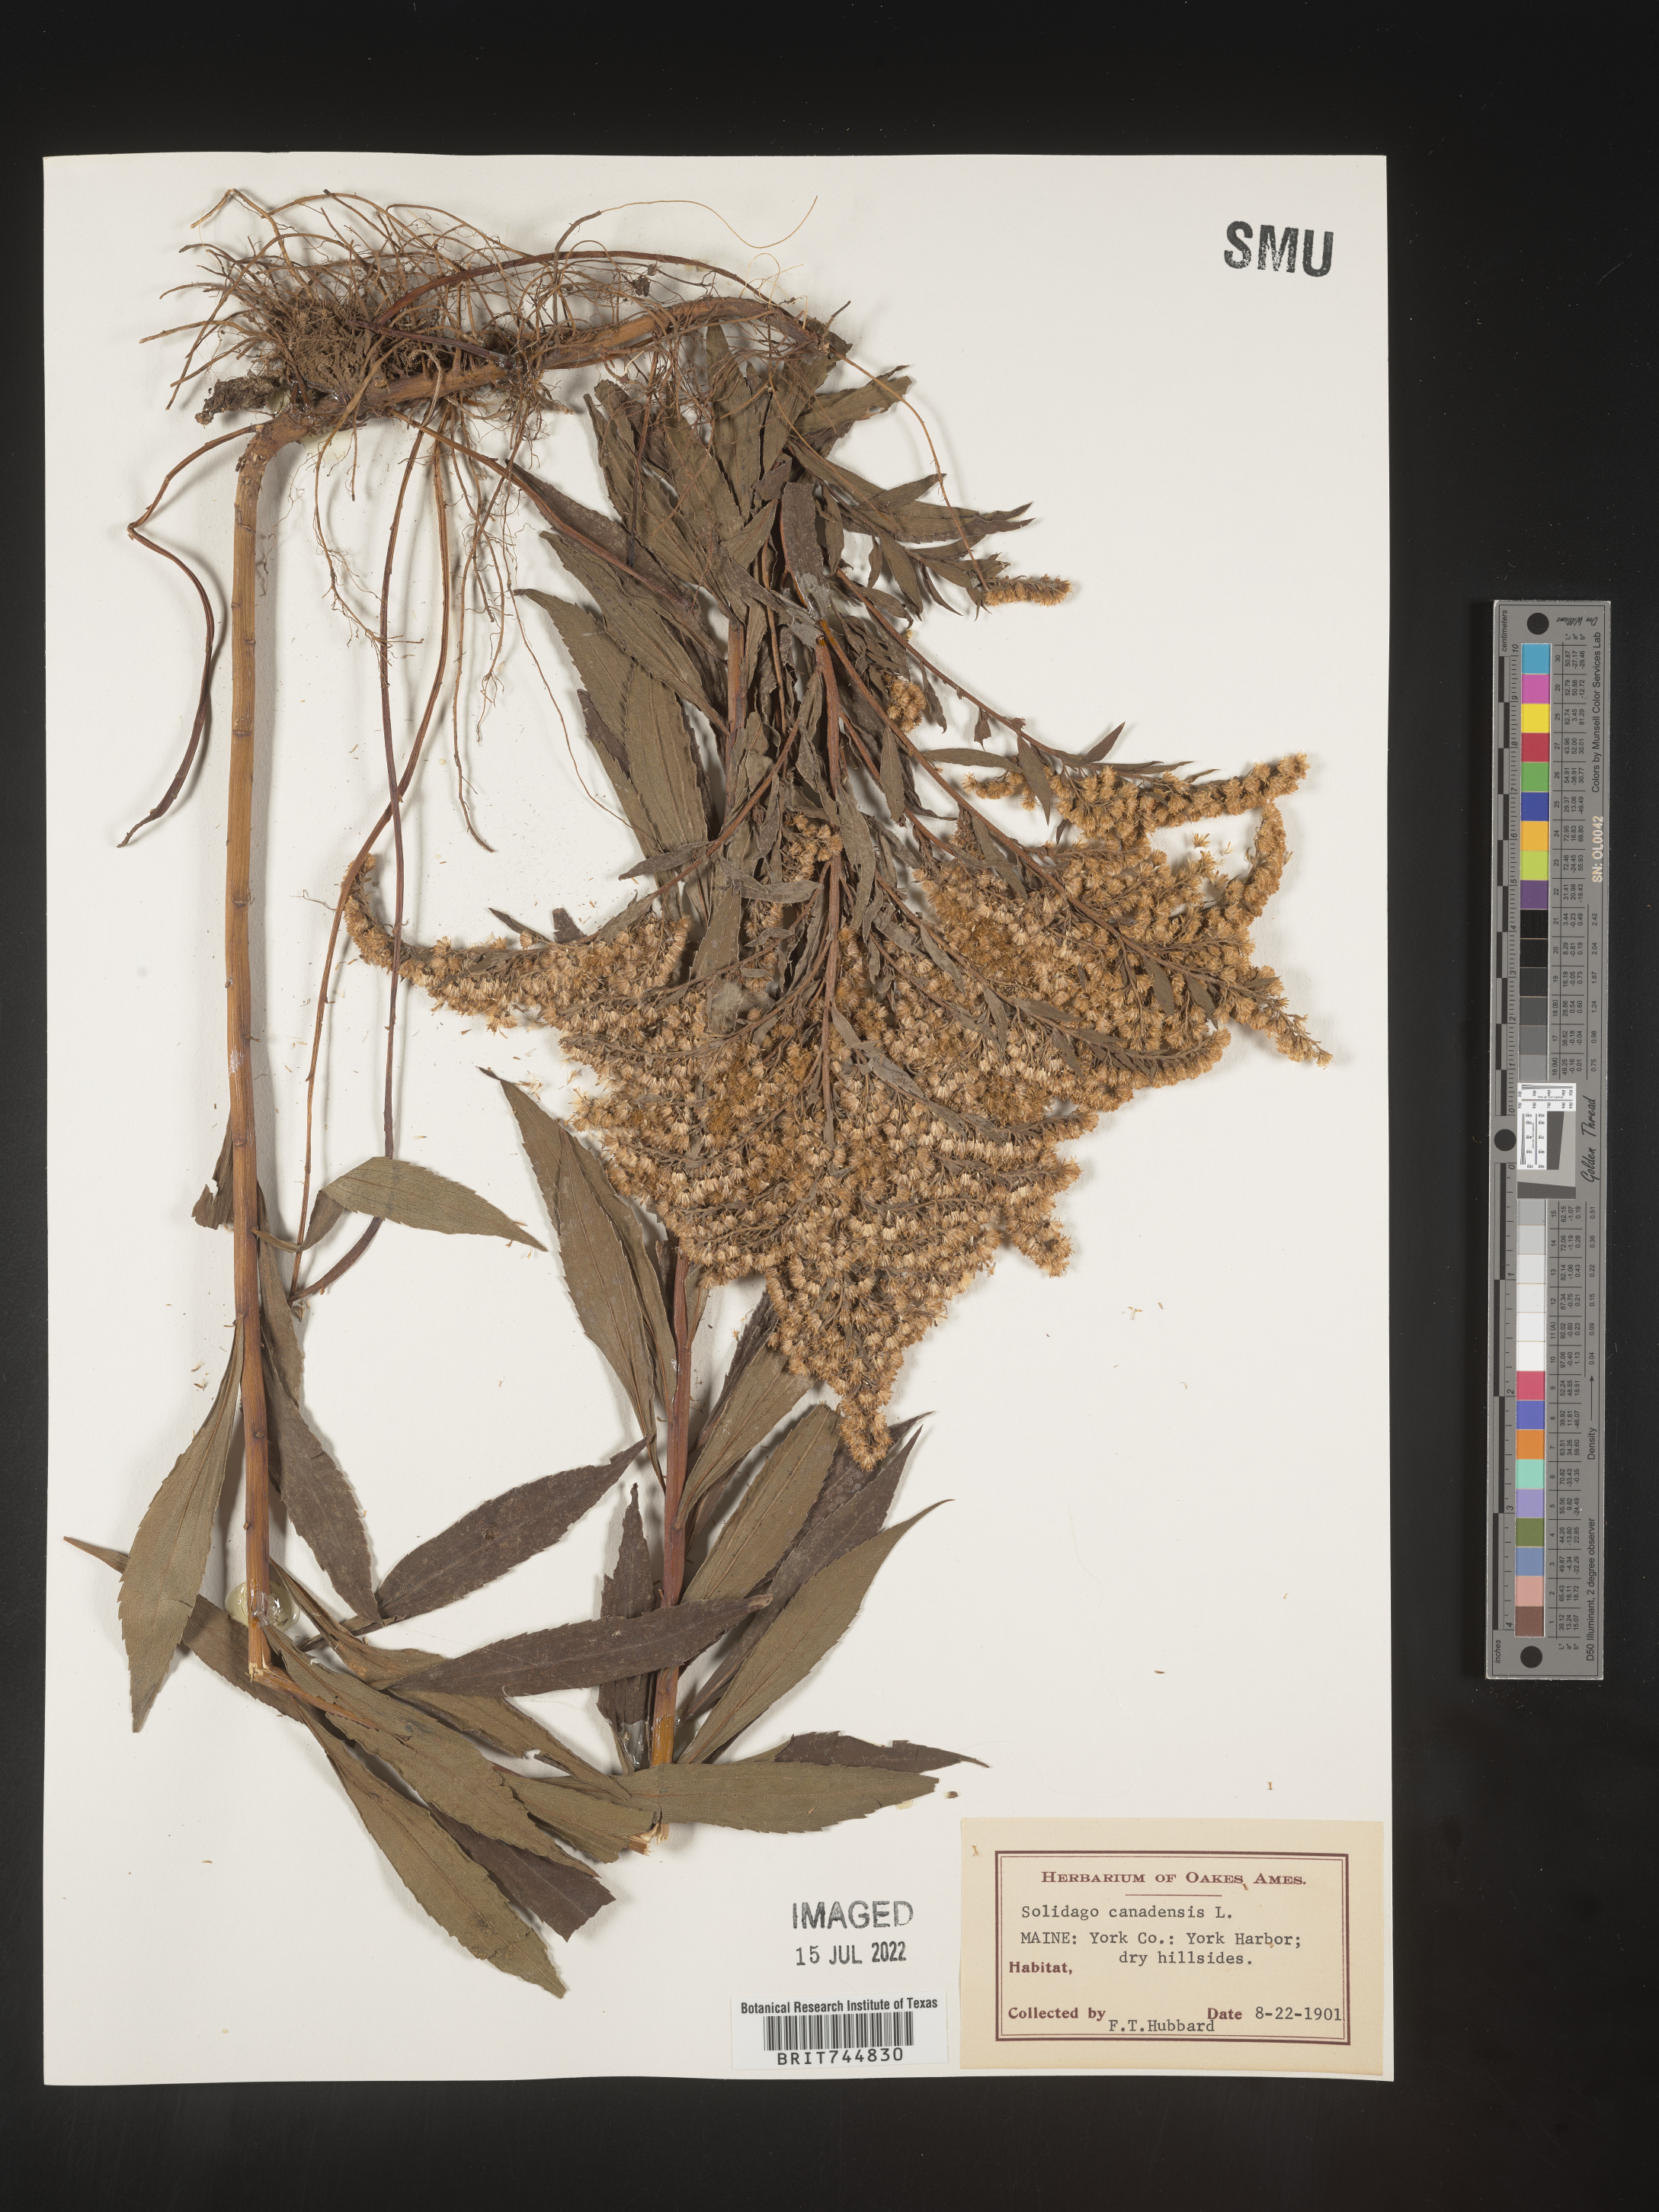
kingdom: Plantae
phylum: Tracheophyta
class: Magnoliopsida
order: Asterales
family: Asteraceae
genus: Solidago
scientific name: Solidago canadensis
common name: Canada goldenrod
